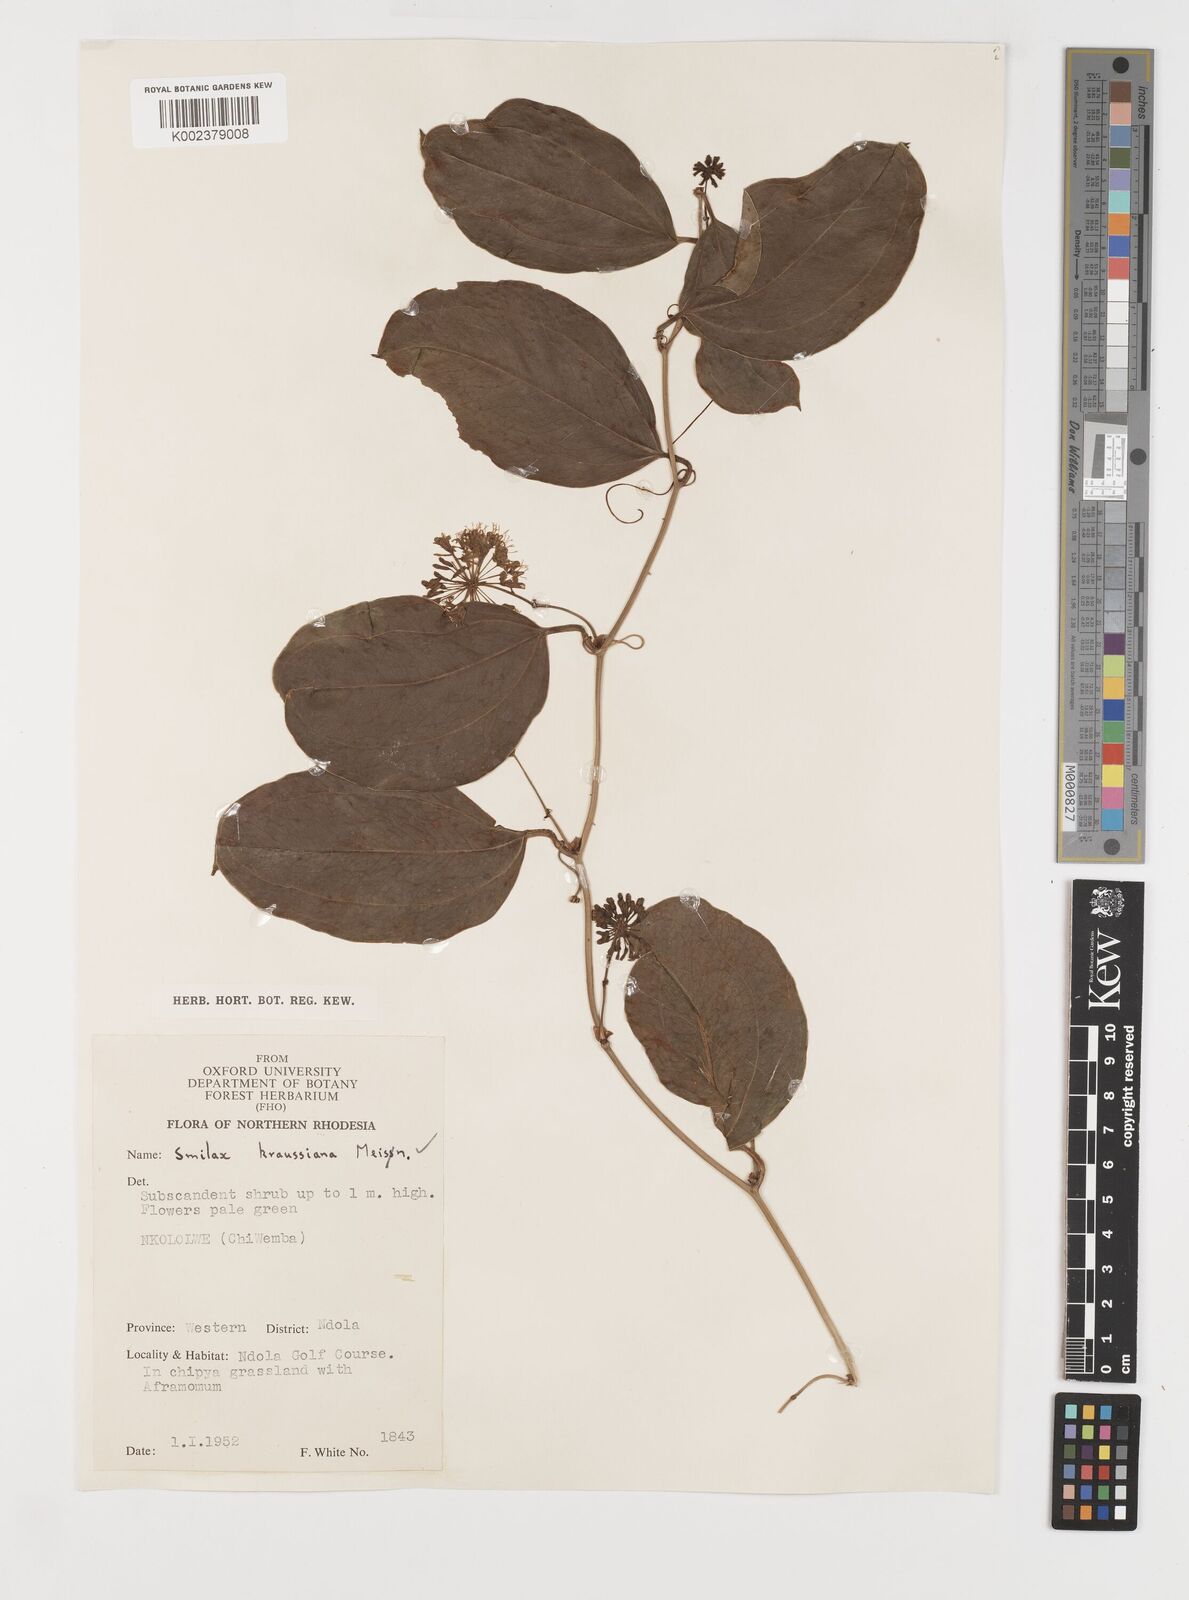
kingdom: Plantae
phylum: Tracheophyta
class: Liliopsida
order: Liliales
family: Smilacaceae
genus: Smilax
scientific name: Smilax anceps
